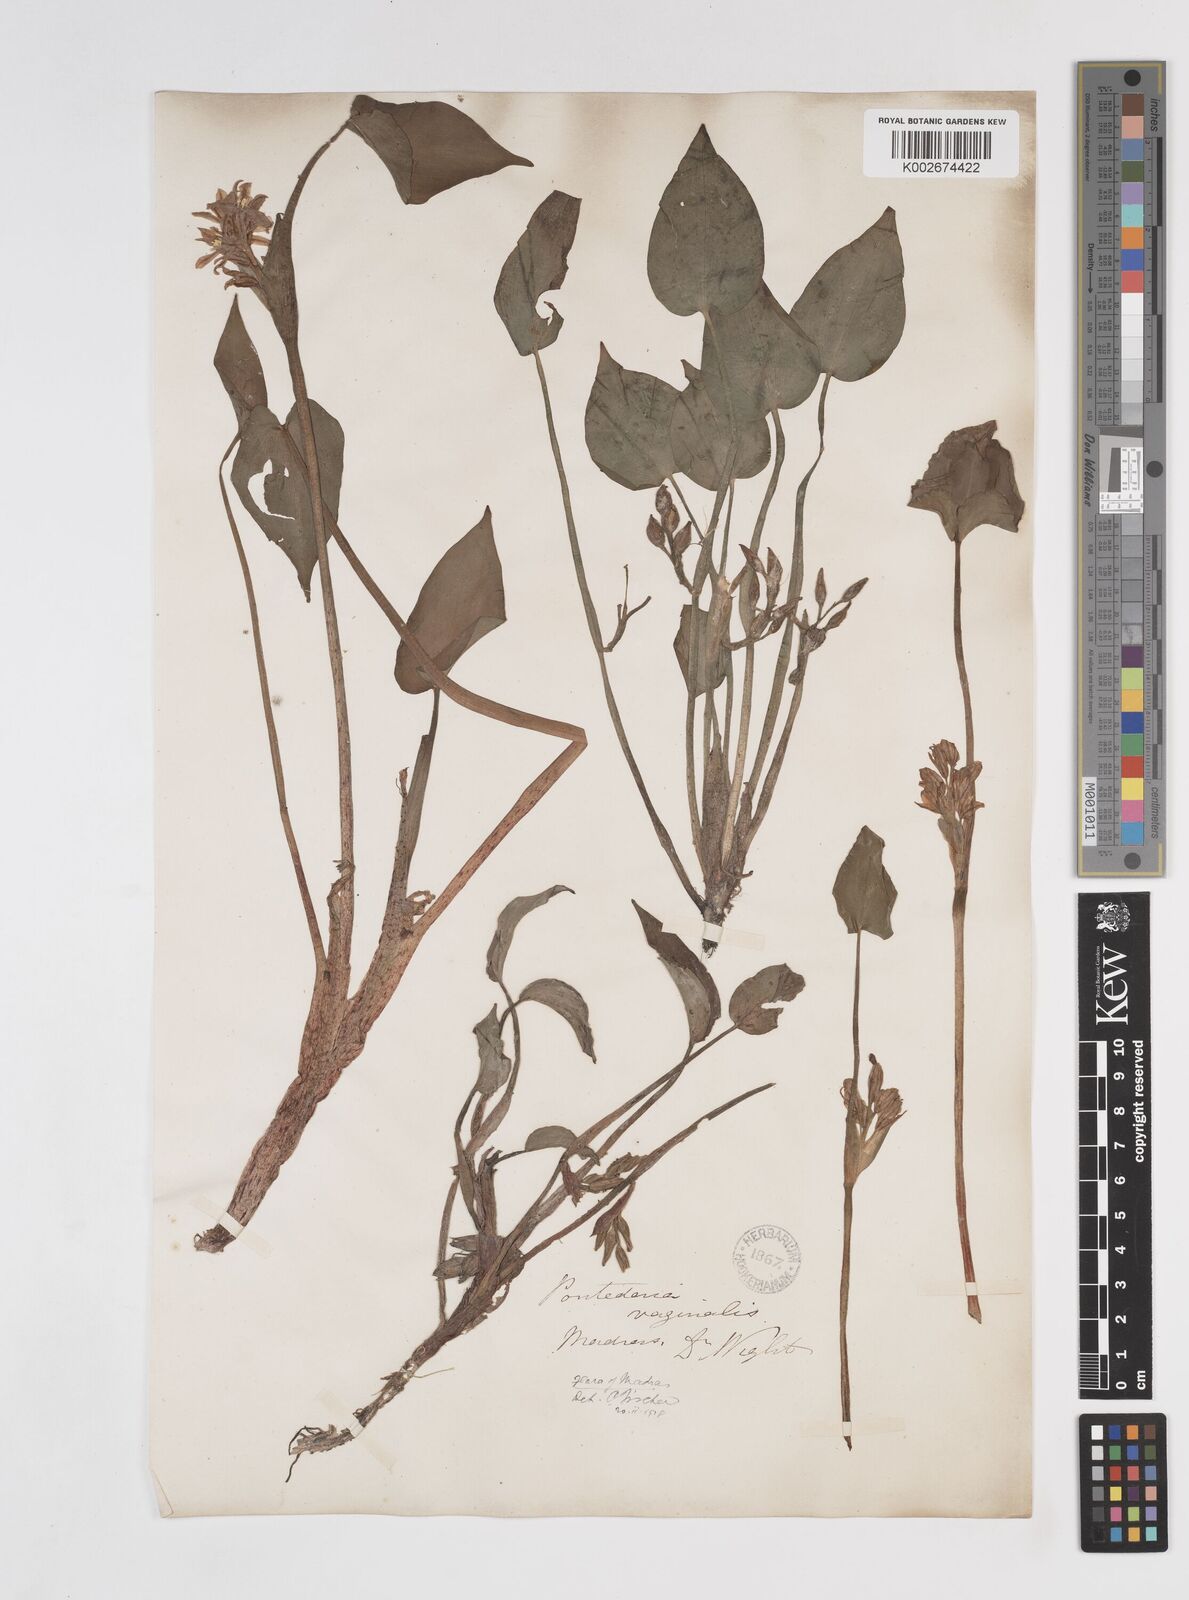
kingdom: Plantae
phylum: Tracheophyta
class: Liliopsida
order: Commelinales
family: Pontederiaceae
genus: Pontederia
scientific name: Pontederia vaginalis
